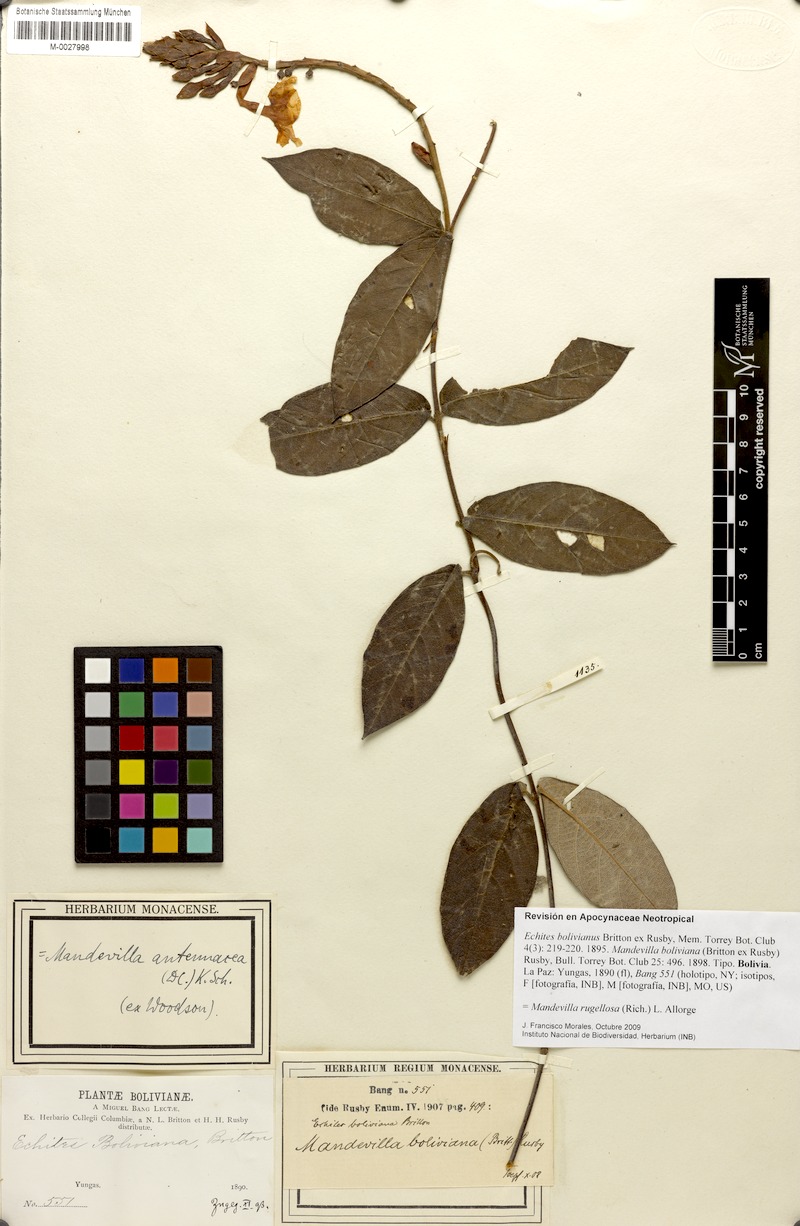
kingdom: Plantae
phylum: Tracheophyta
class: Magnoliopsida
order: Gentianales
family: Apocynaceae
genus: Mandevilla
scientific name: Mandevilla rugellosa
